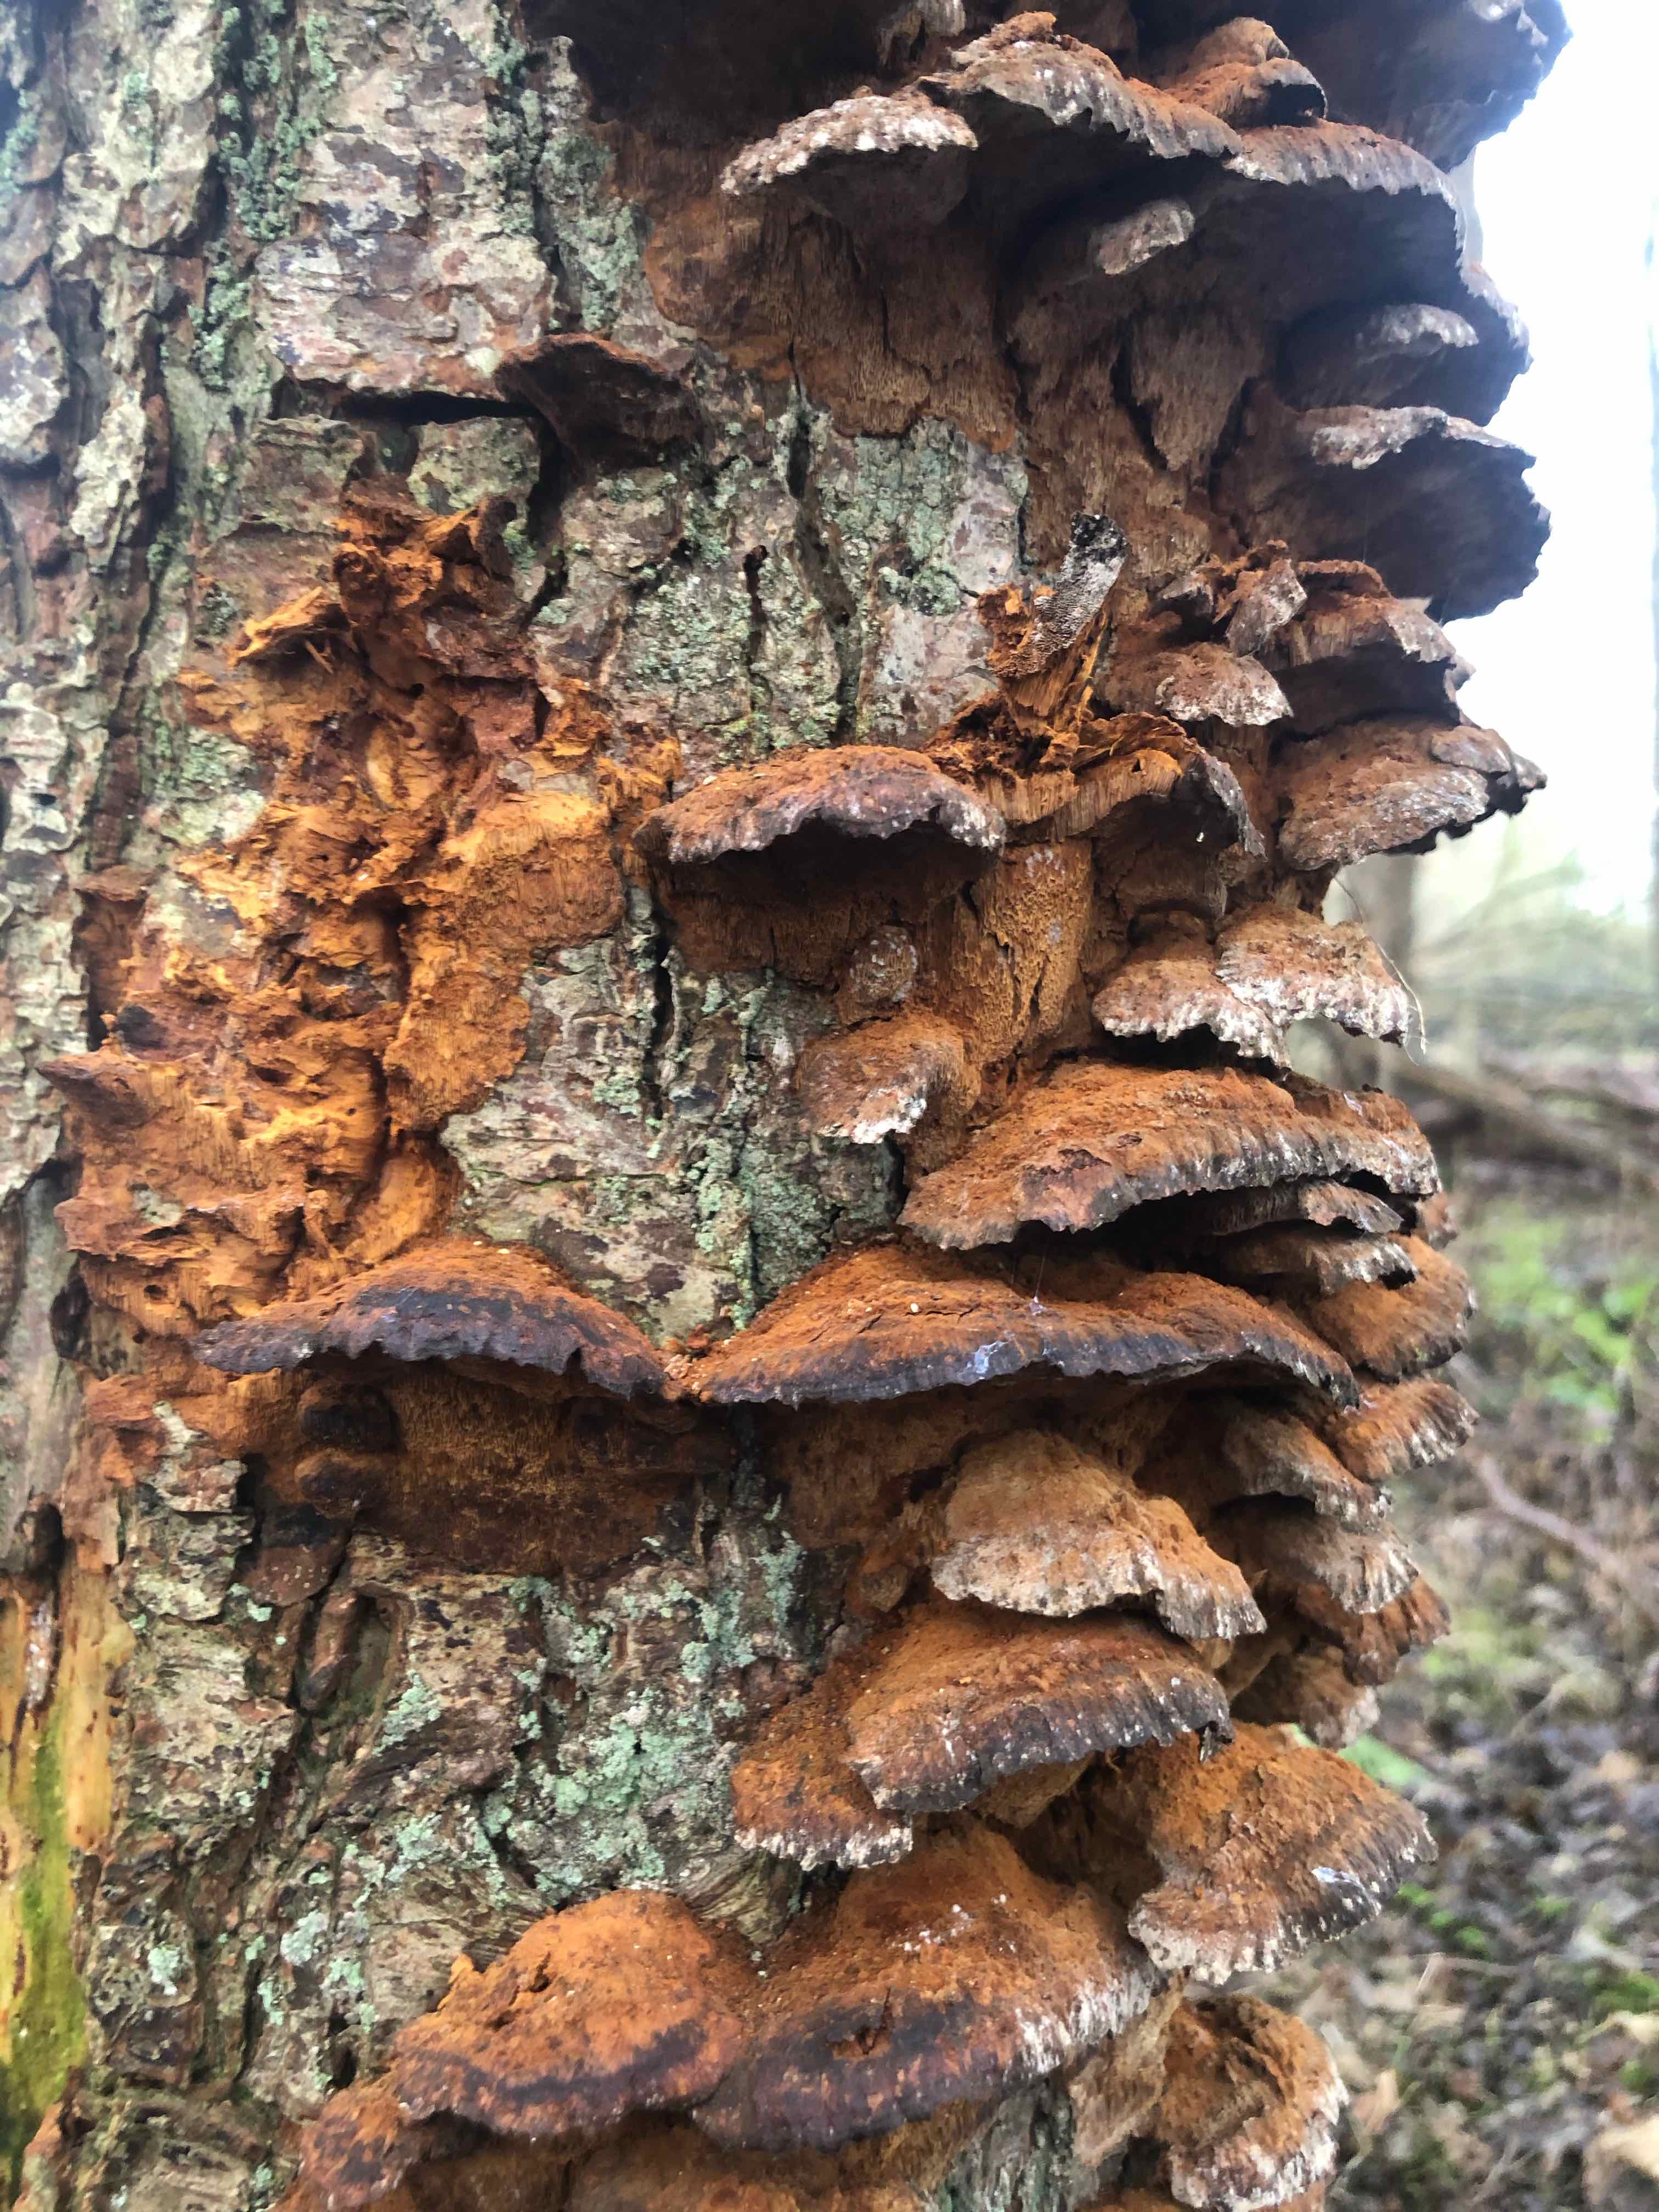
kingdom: Fungi
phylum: Basidiomycota
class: Agaricomycetes
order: Hymenochaetales
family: Hymenochaetaceae
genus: Xanthoporia
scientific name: Xanthoporia radiata
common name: elle-spejlporesvamp
